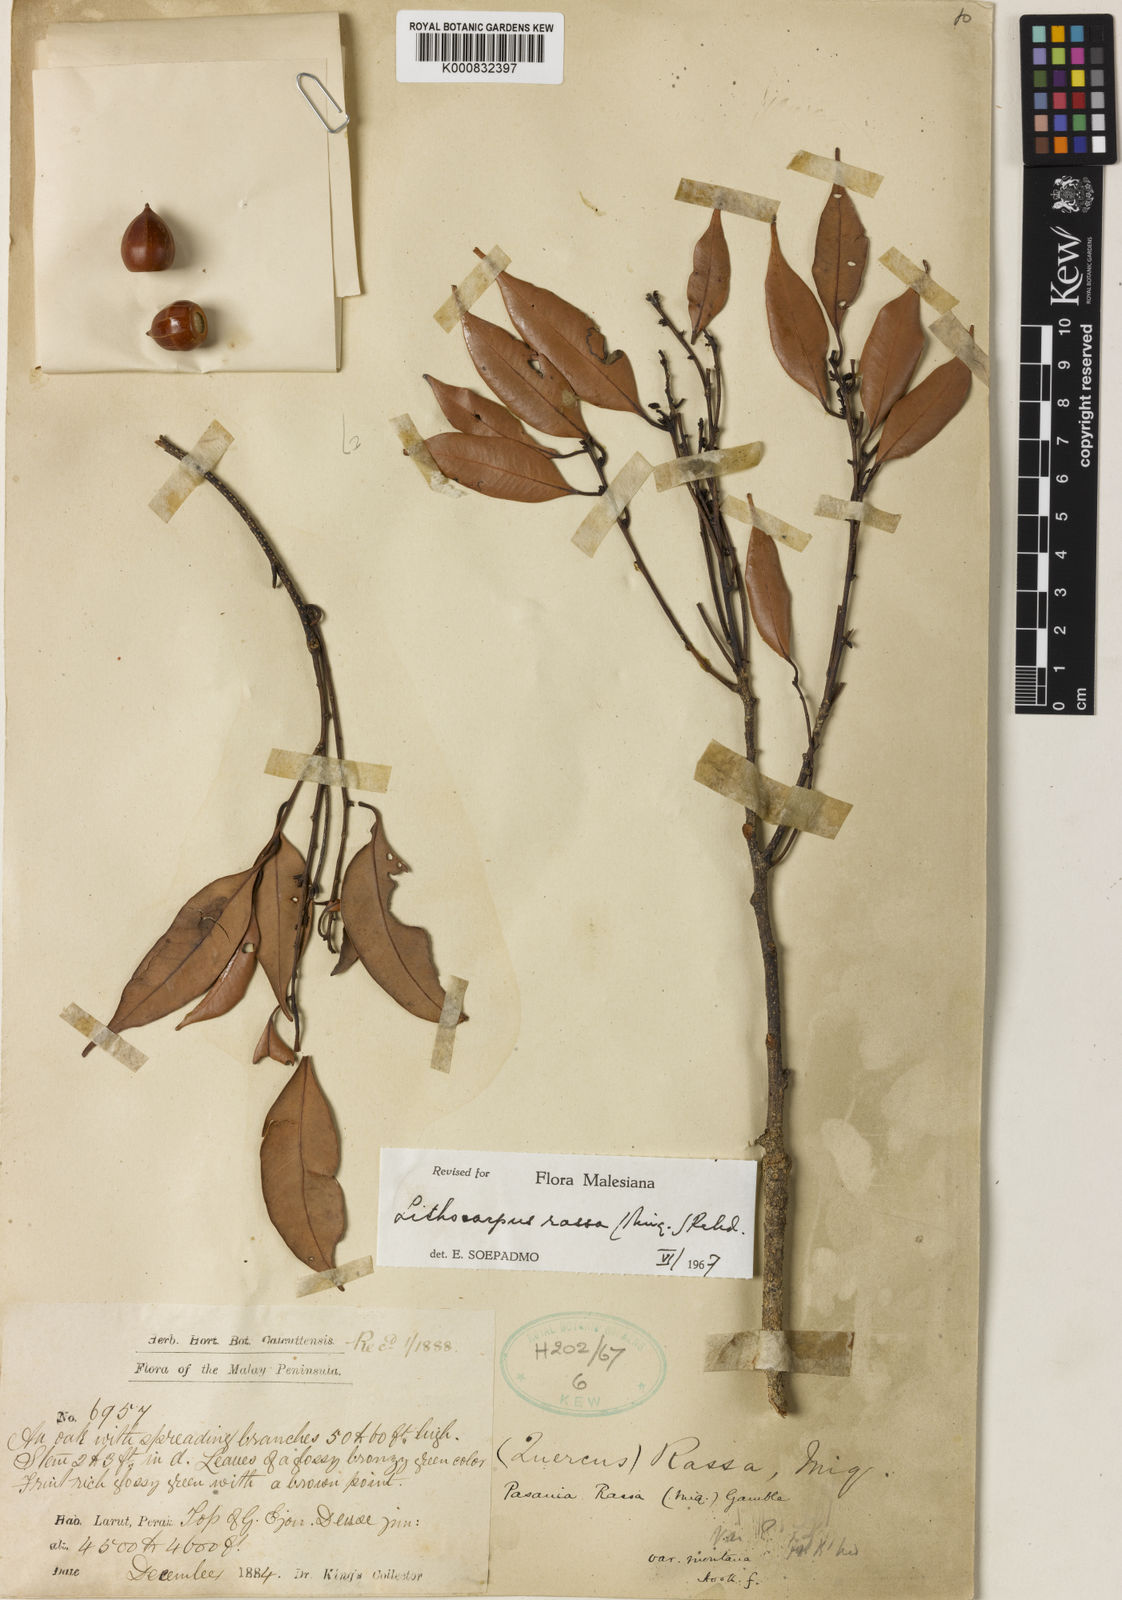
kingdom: Plantae
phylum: Tracheophyta
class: Magnoliopsida
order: Fagales
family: Fagaceae
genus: Lithocarpus
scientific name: Lithocarpus rassa
